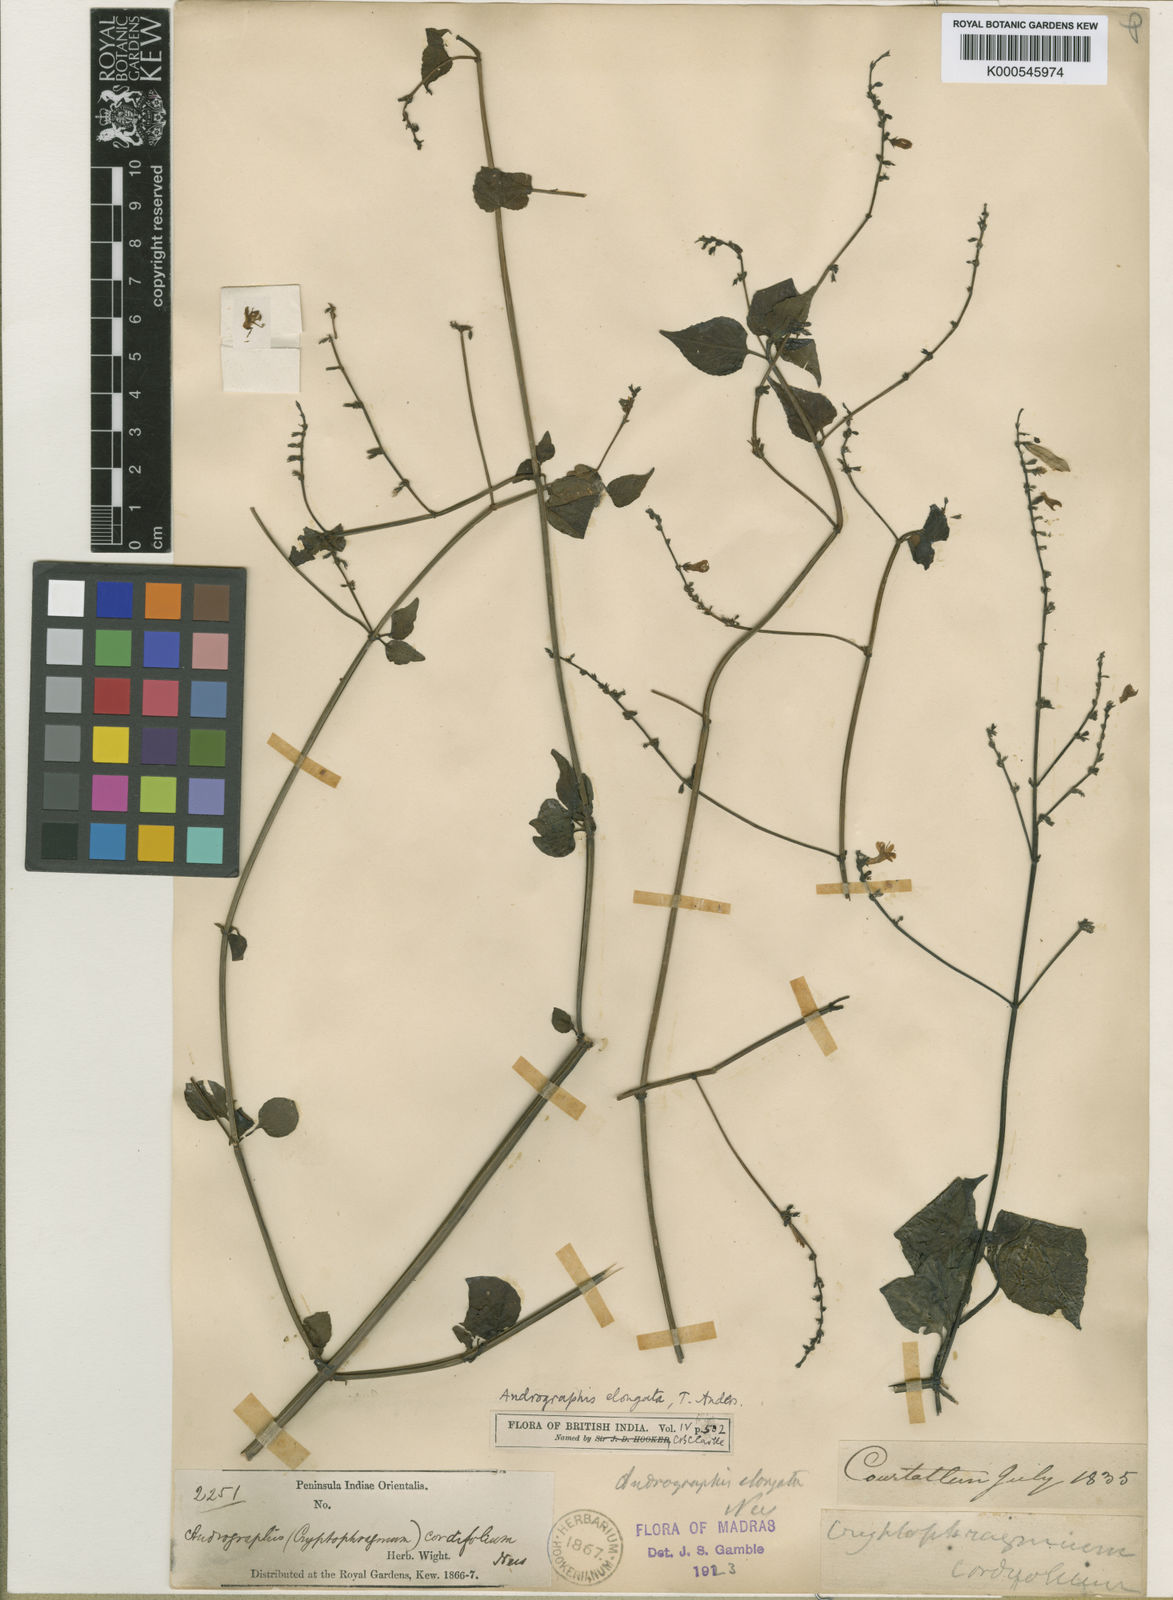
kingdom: Plantae
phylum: Tracheophyta
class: Magnoliopsida
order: Lamiales
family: Acanthaceae
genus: Andrographis
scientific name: Andrographis elongata
